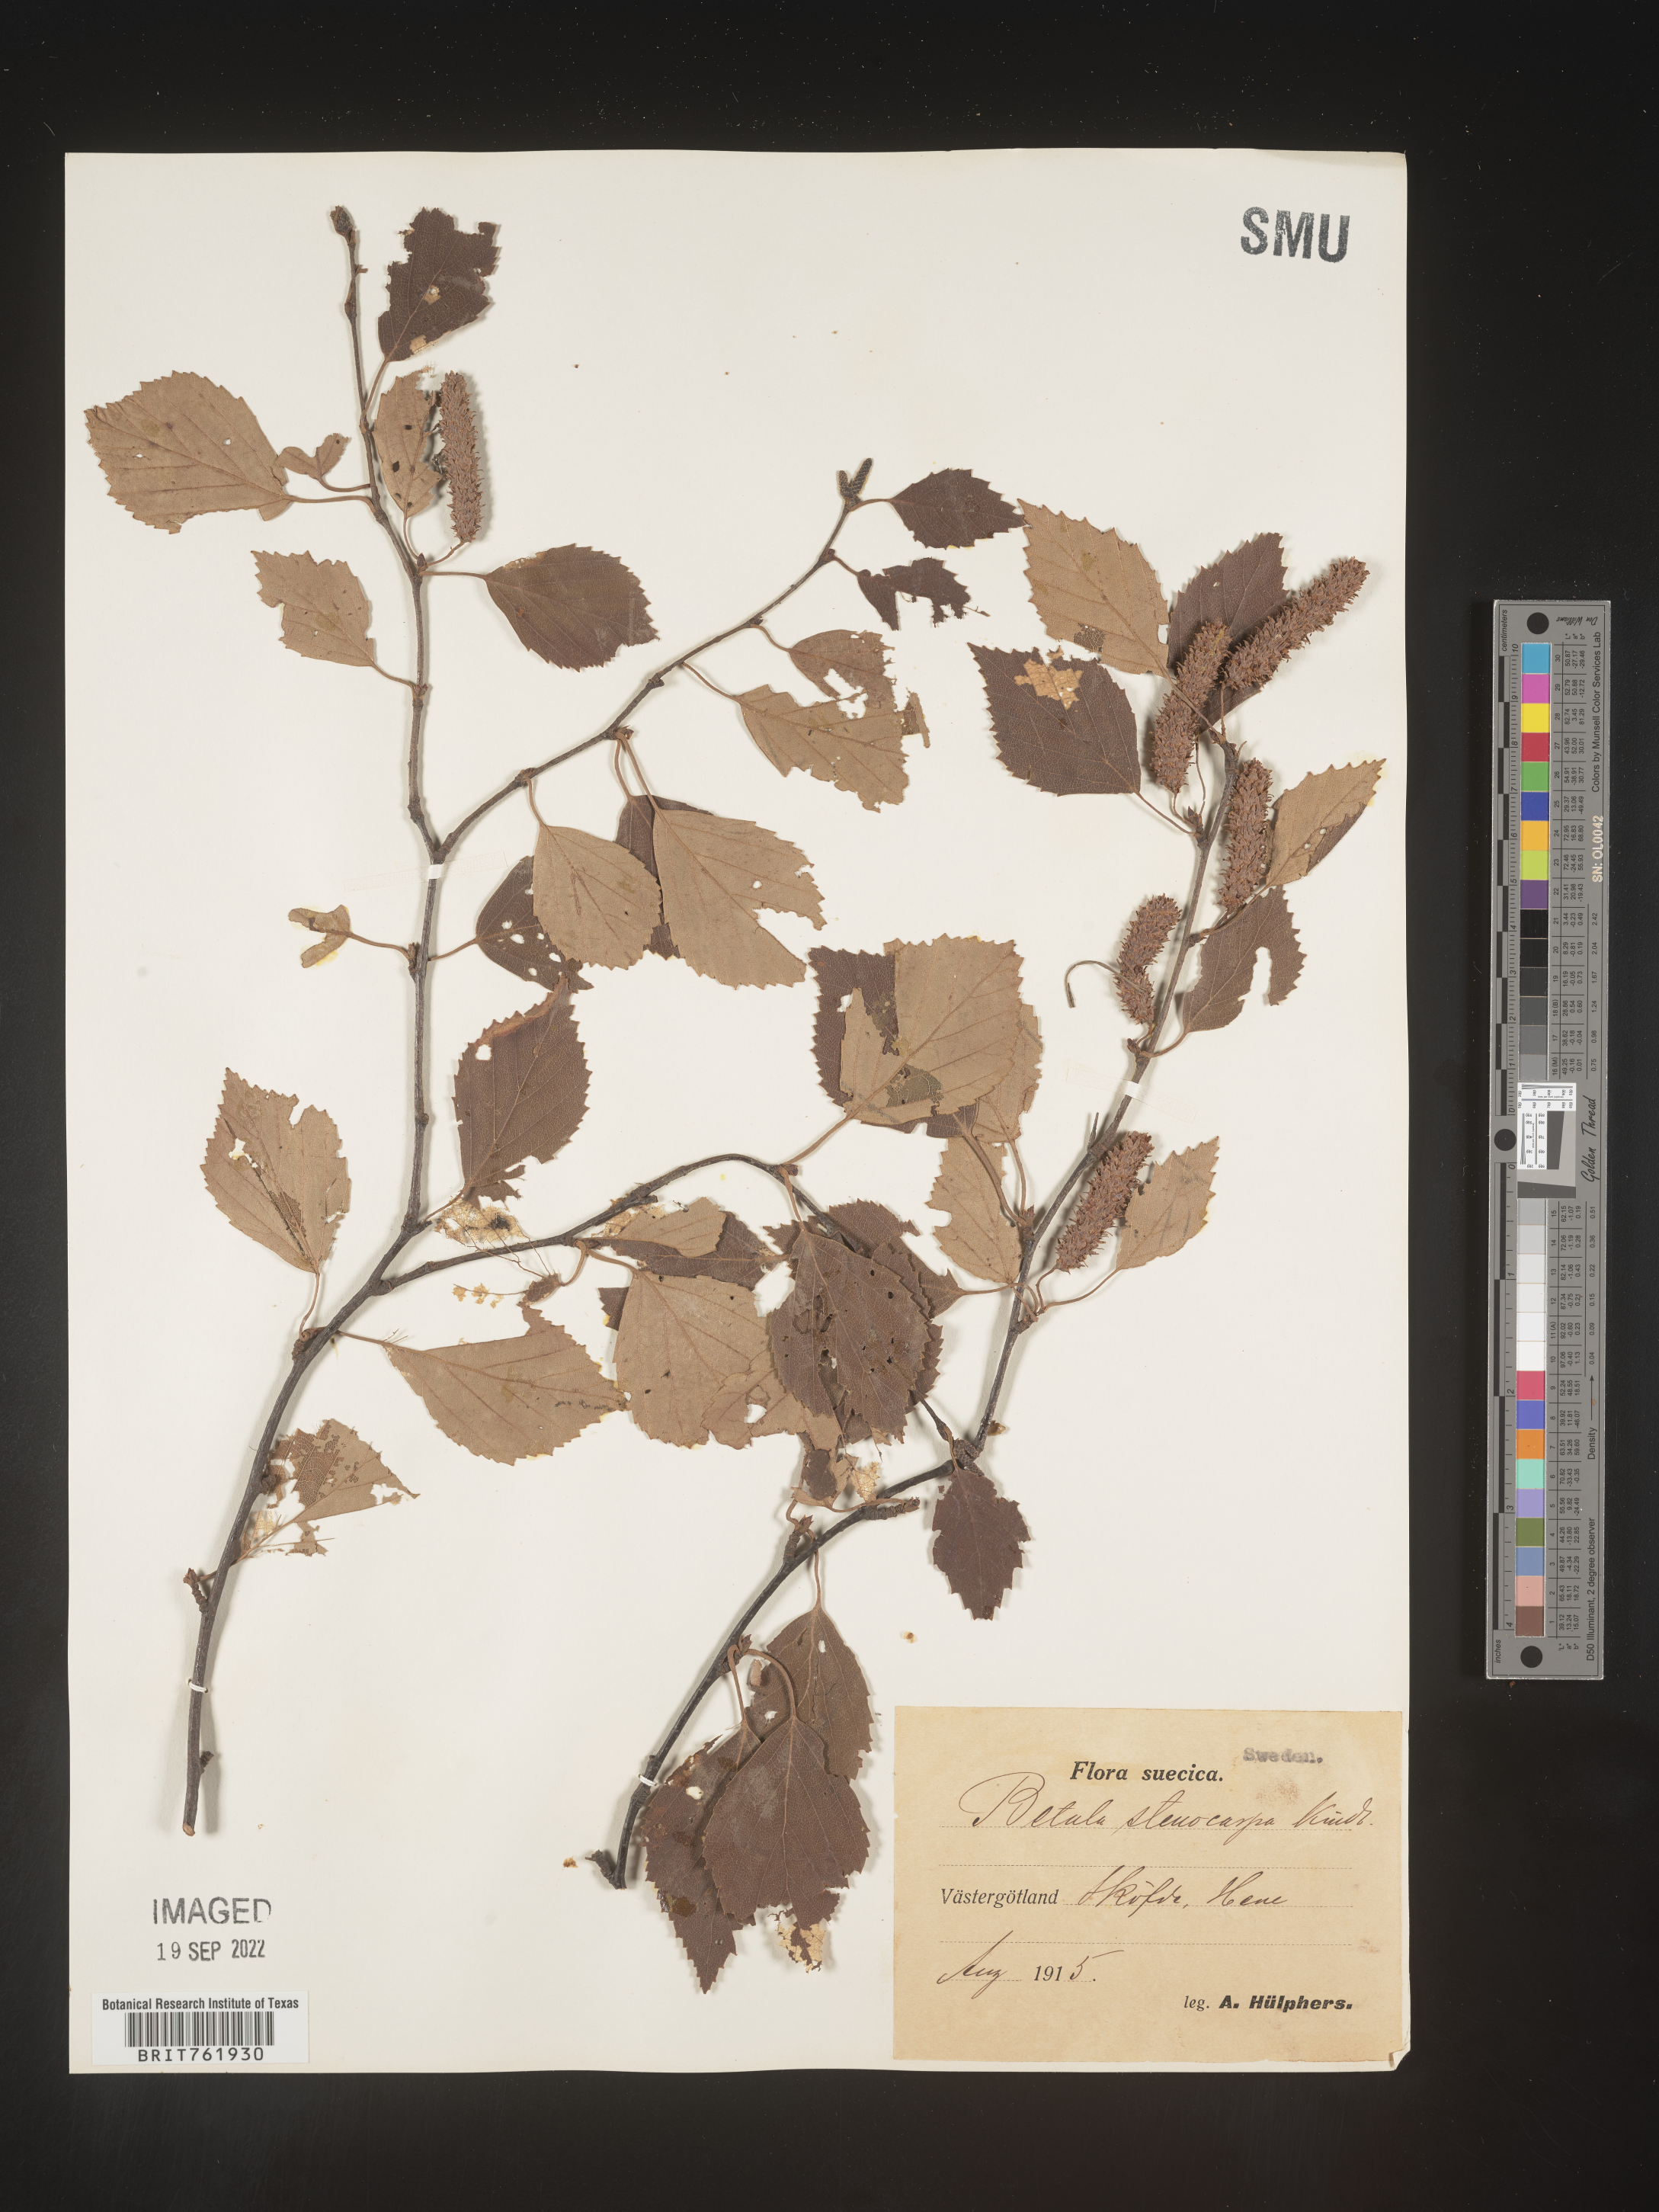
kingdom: Plantae
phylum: Tracheophyta
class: Magnoliopsida
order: Fagales
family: Betulaceae
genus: Betula
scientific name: Betula
